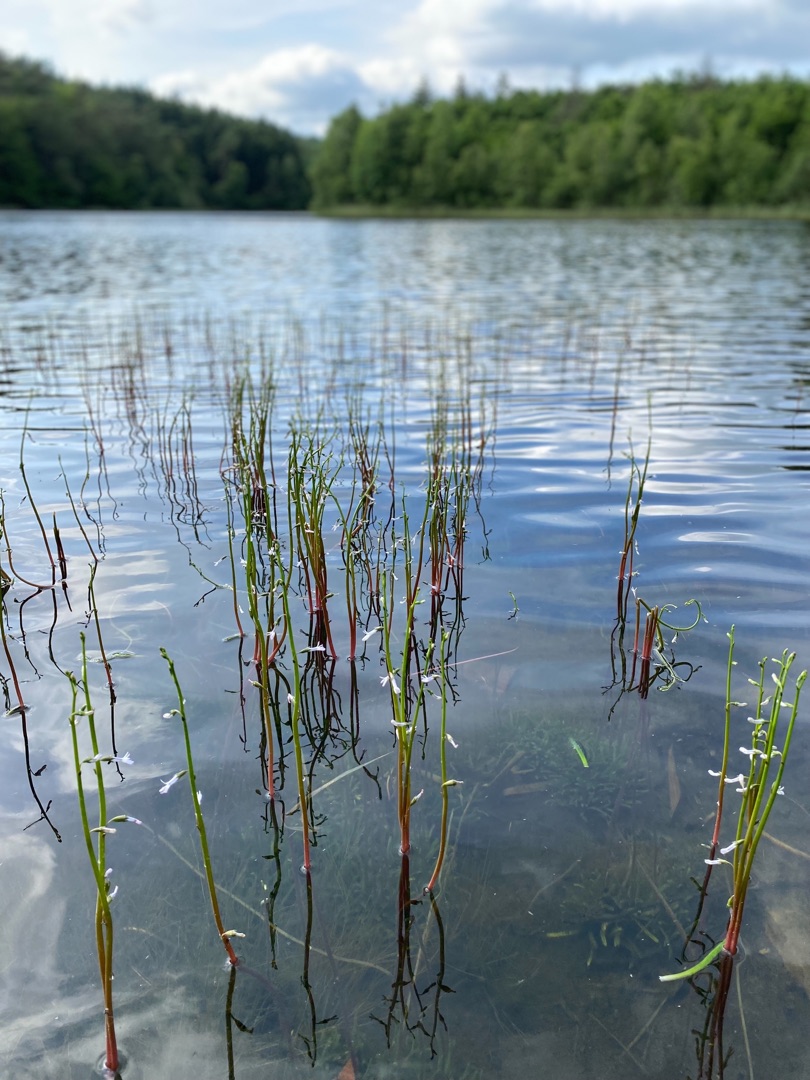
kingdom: Plantae
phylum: Tracheophyta
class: Magnoliopsida
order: Asterales
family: Campanulaceae
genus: Lobelia
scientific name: Lobelia dortmanna
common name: Tvepibet lobelie
